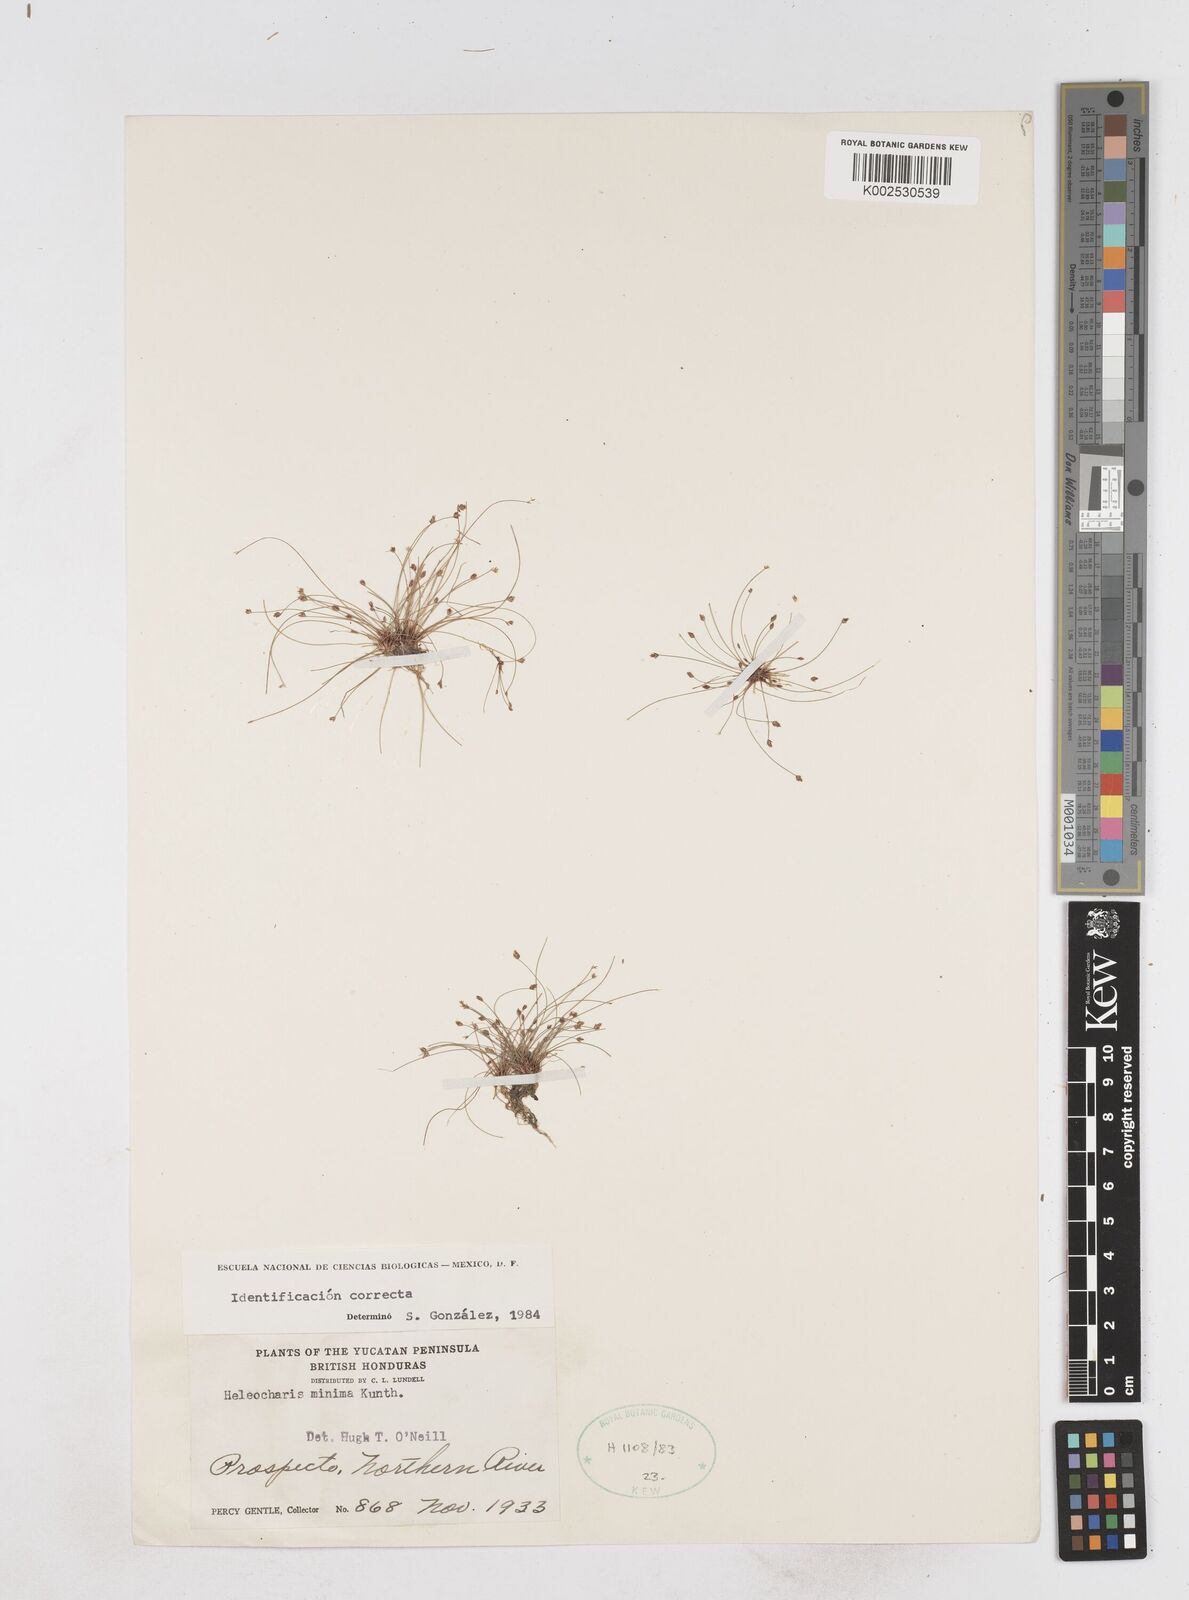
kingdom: Plantae
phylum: Tracheophyta
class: Liliopsida
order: Poales
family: Cyperaceae
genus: Eleocharis
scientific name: Eleocharis minima
